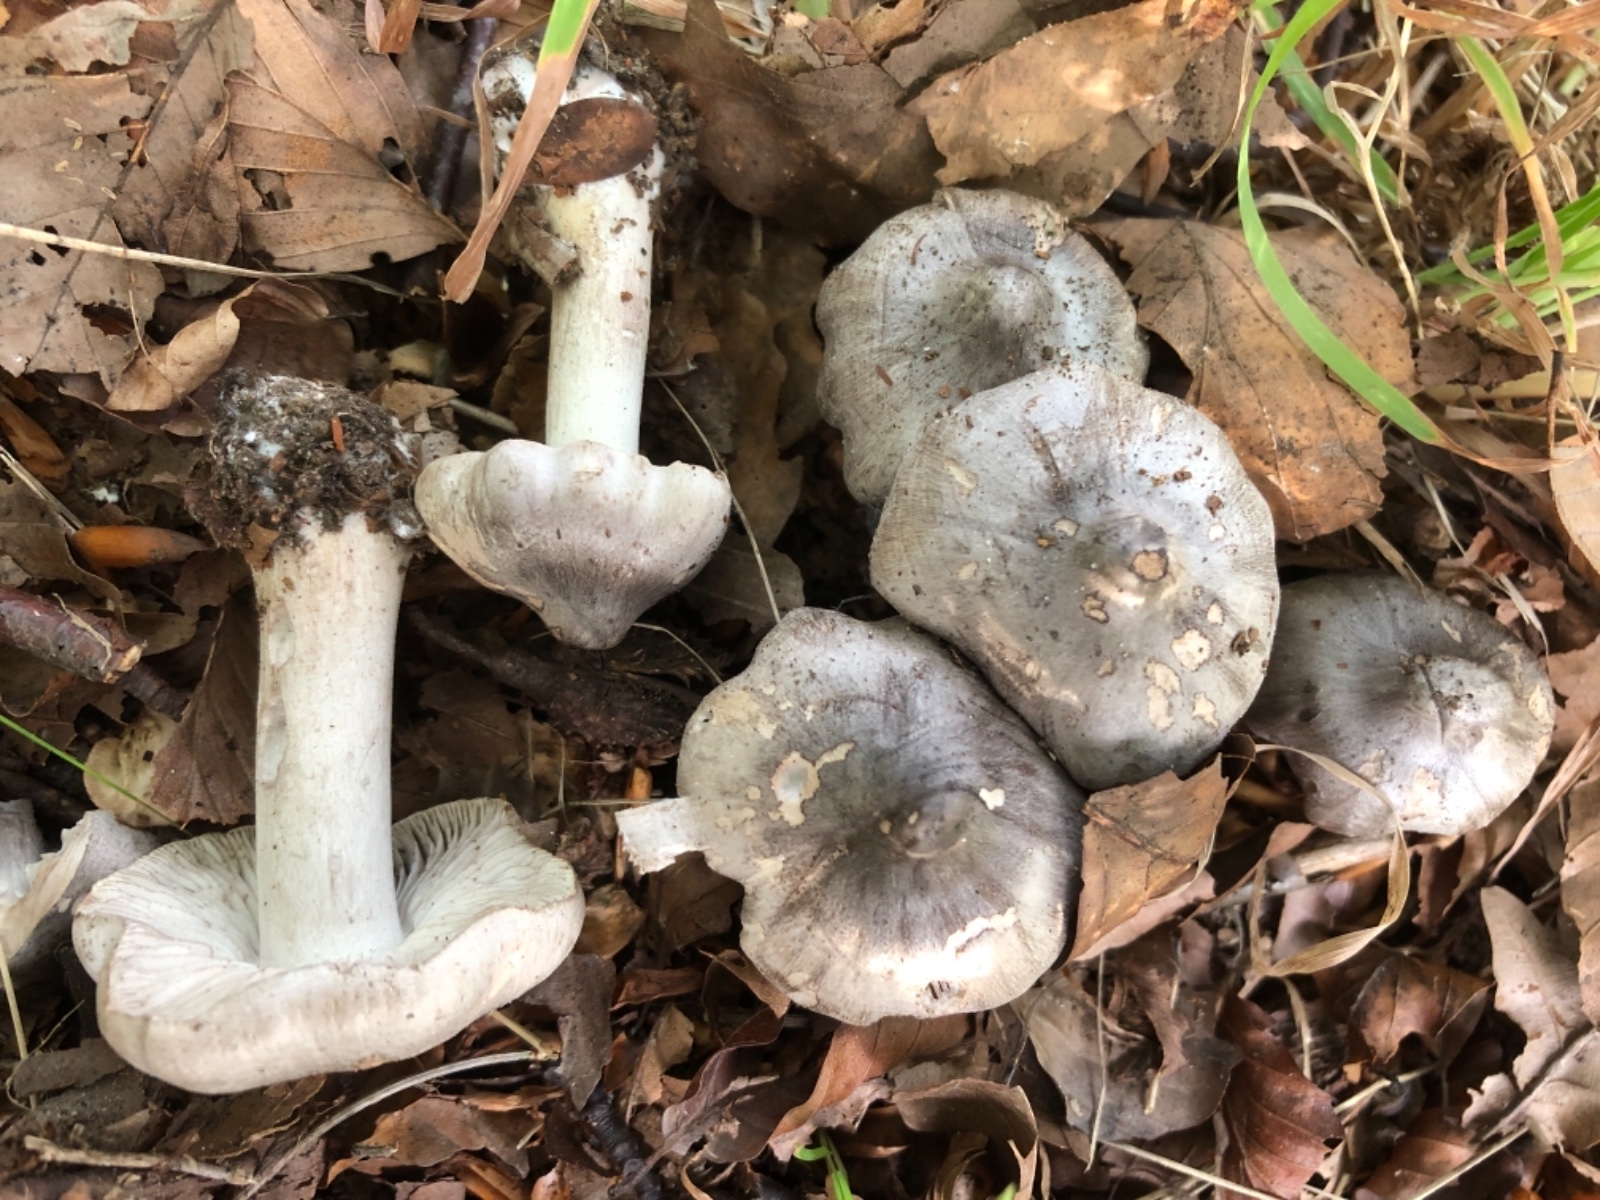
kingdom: Fungi
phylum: Basidiomycota
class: Agaricomycetes
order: Agaricales
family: Tricholomataceae
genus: Tricholoma
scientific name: Tricholoma sciodes
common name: stribet ridderhat
